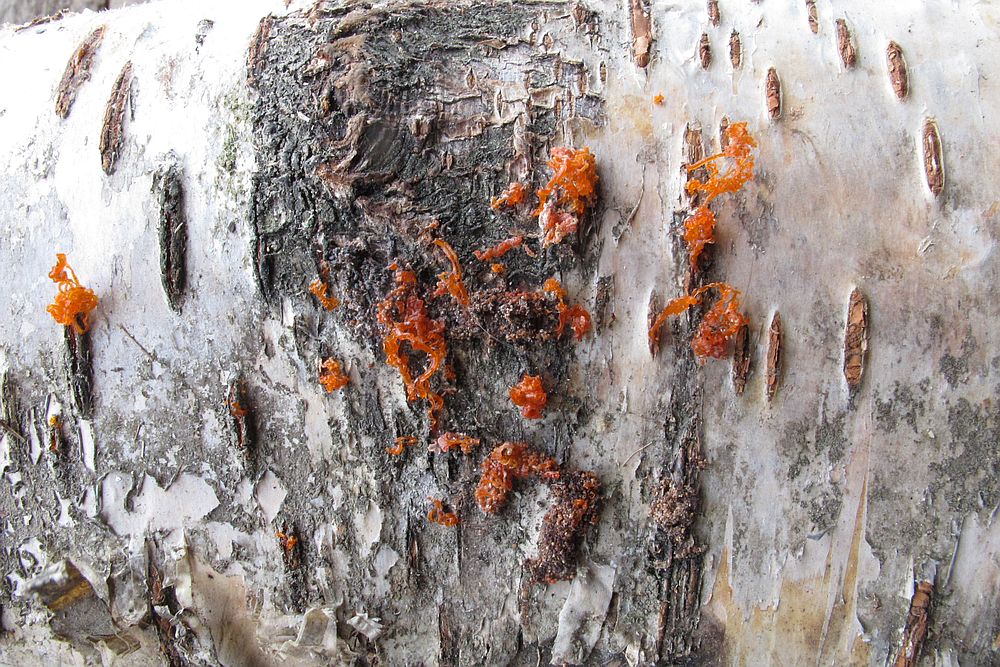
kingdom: Fungi
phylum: Ascomycota
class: Sordariomycetes
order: Xylariales
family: Diatrypaceae
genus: Diatrype
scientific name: Diatrype
